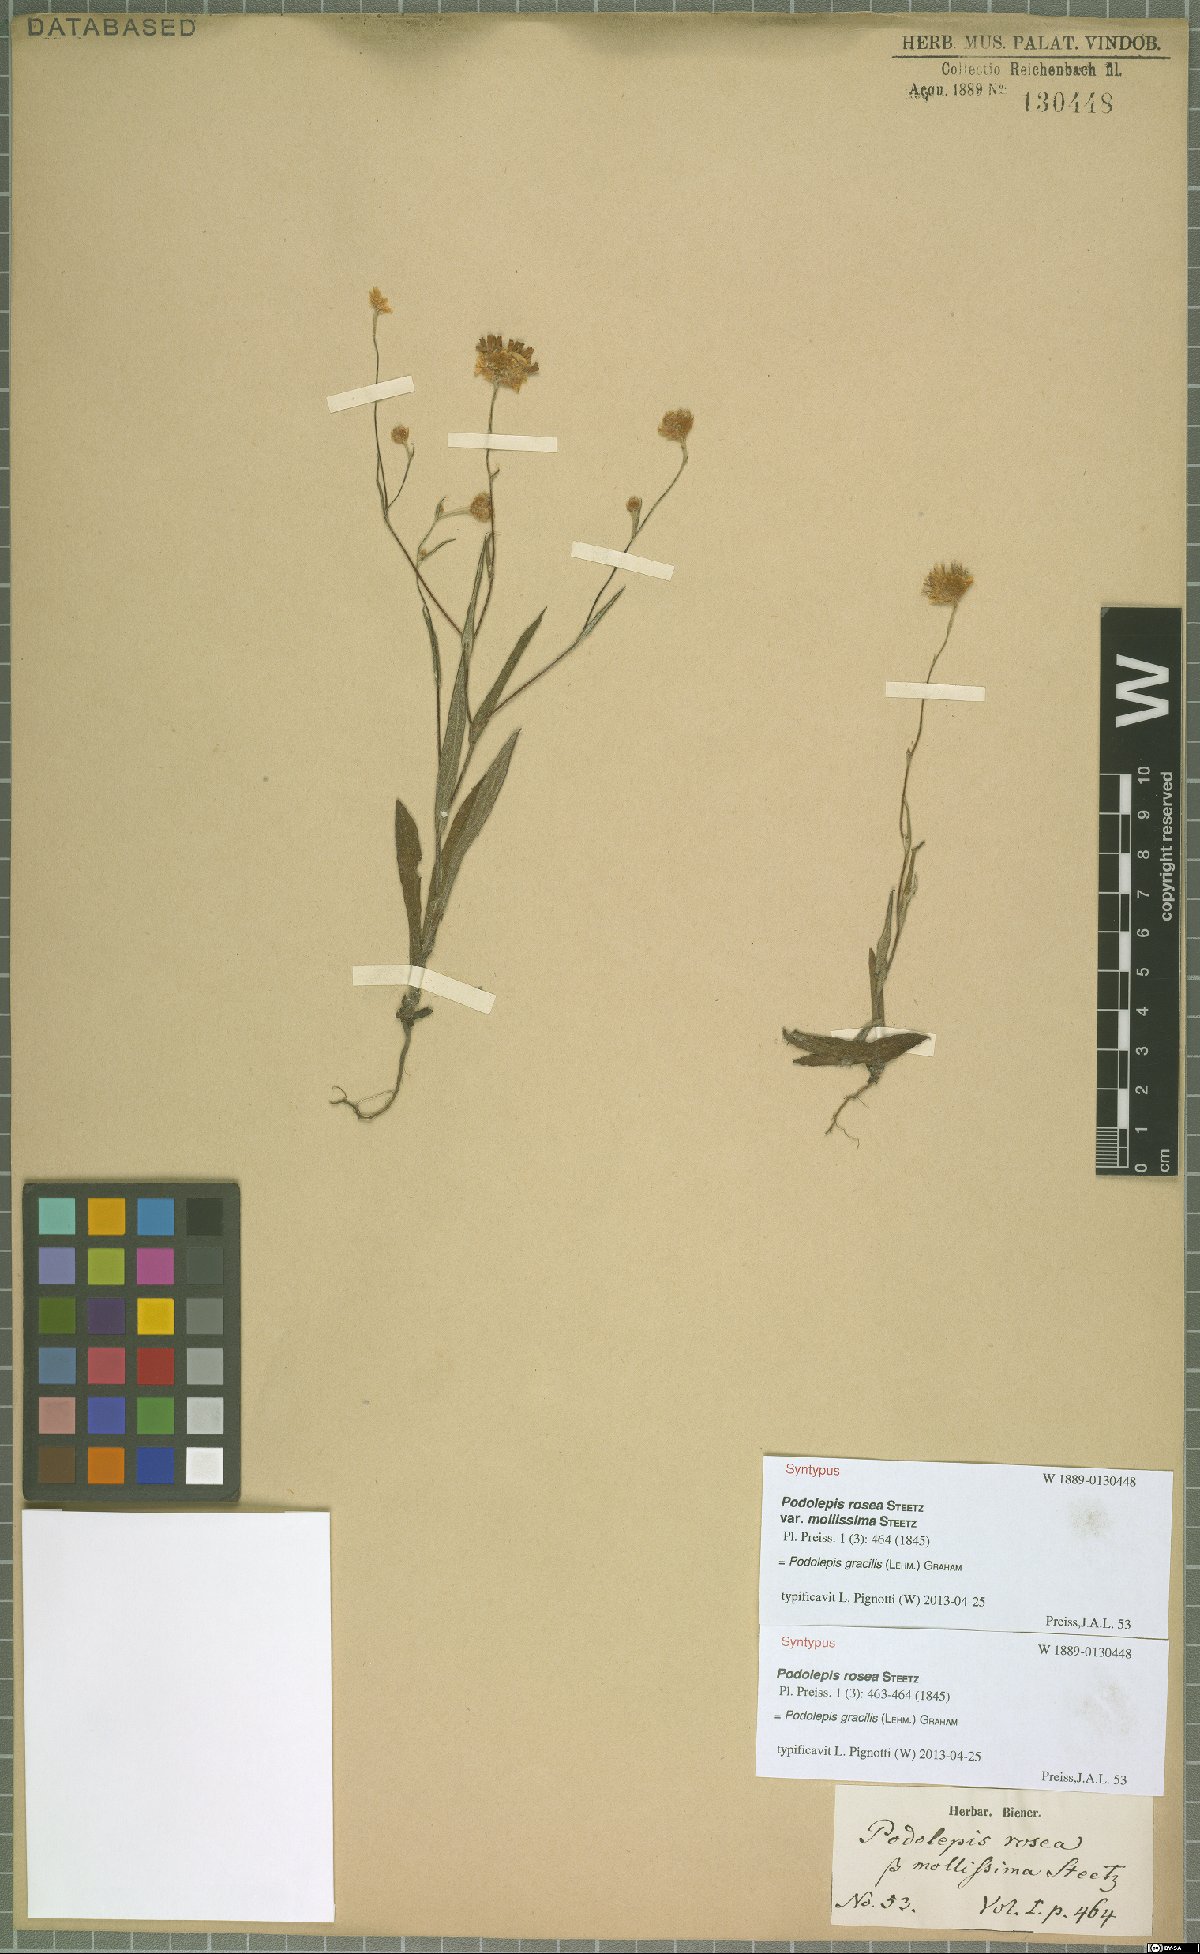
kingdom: Plantae
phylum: Tracheophyta
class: Magnoliopsida
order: Asterales
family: Asteraceae
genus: Podolepis
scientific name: Podolepis gracilis
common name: Slender podolepis
